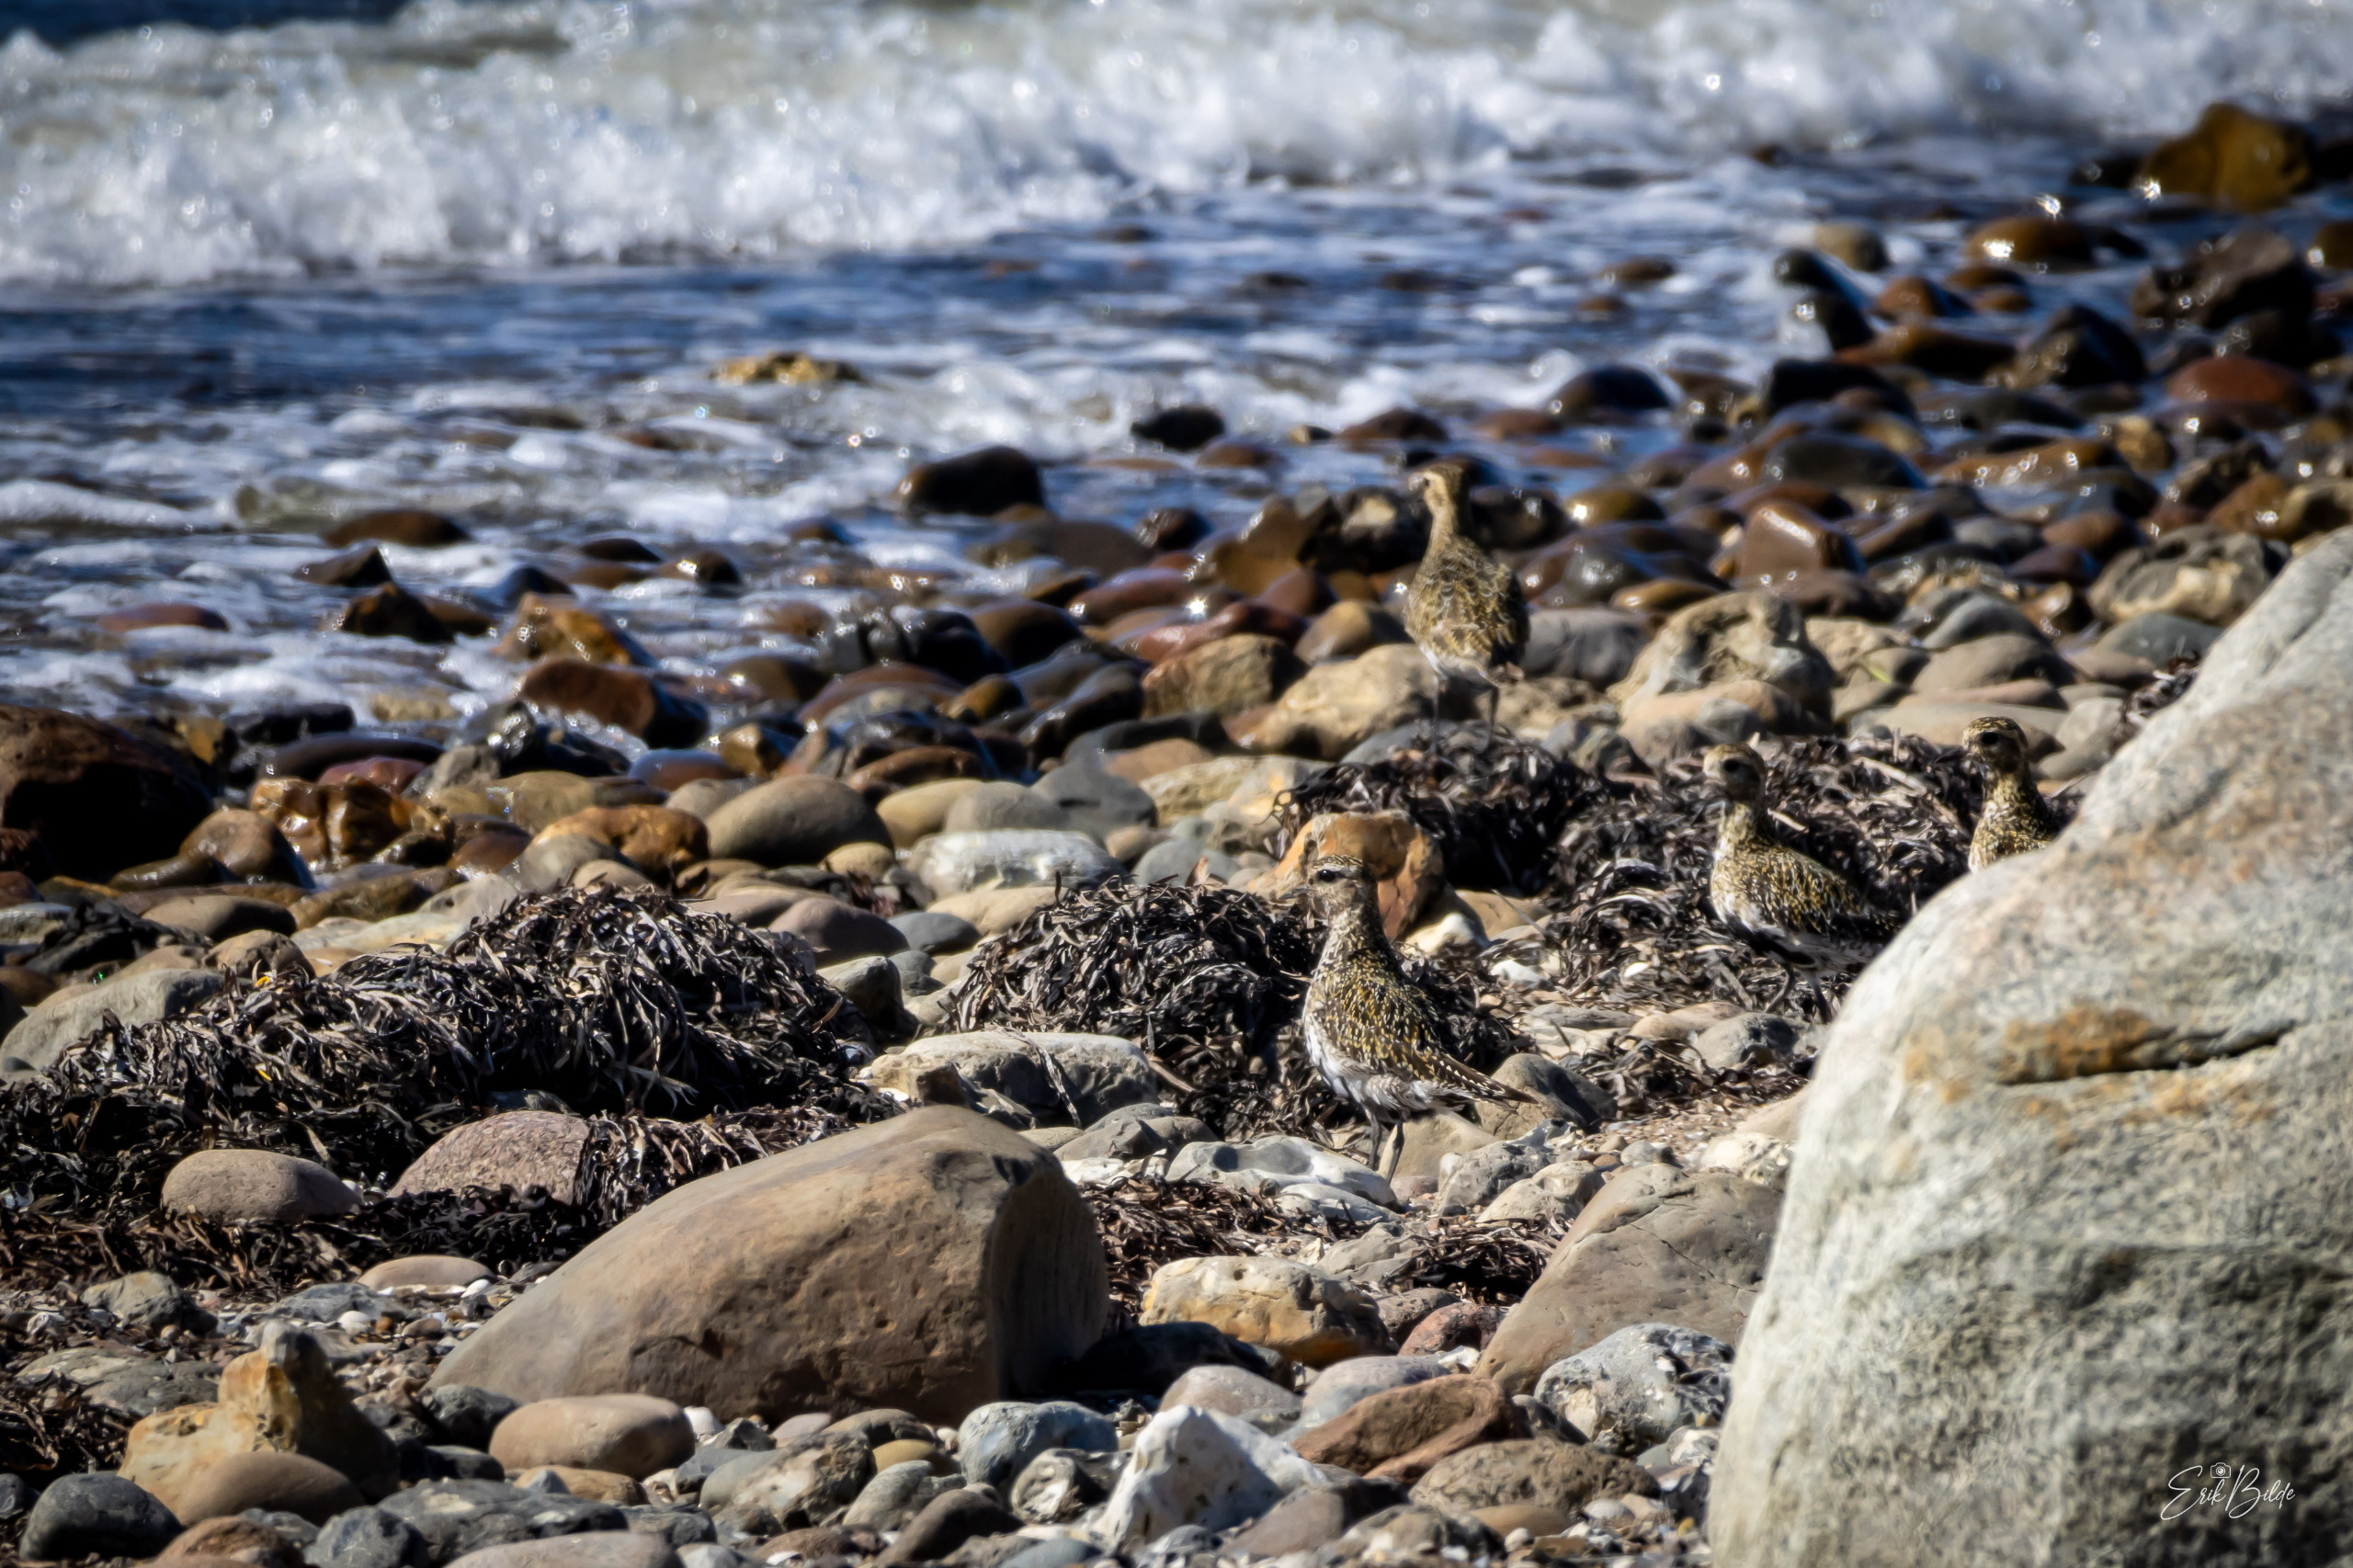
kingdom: Animalia
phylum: Chordata
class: Aves
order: Charadriiformes
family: Charadriidae
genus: Pluvialis
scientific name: Pluvialis apricaria
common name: Hjejle
